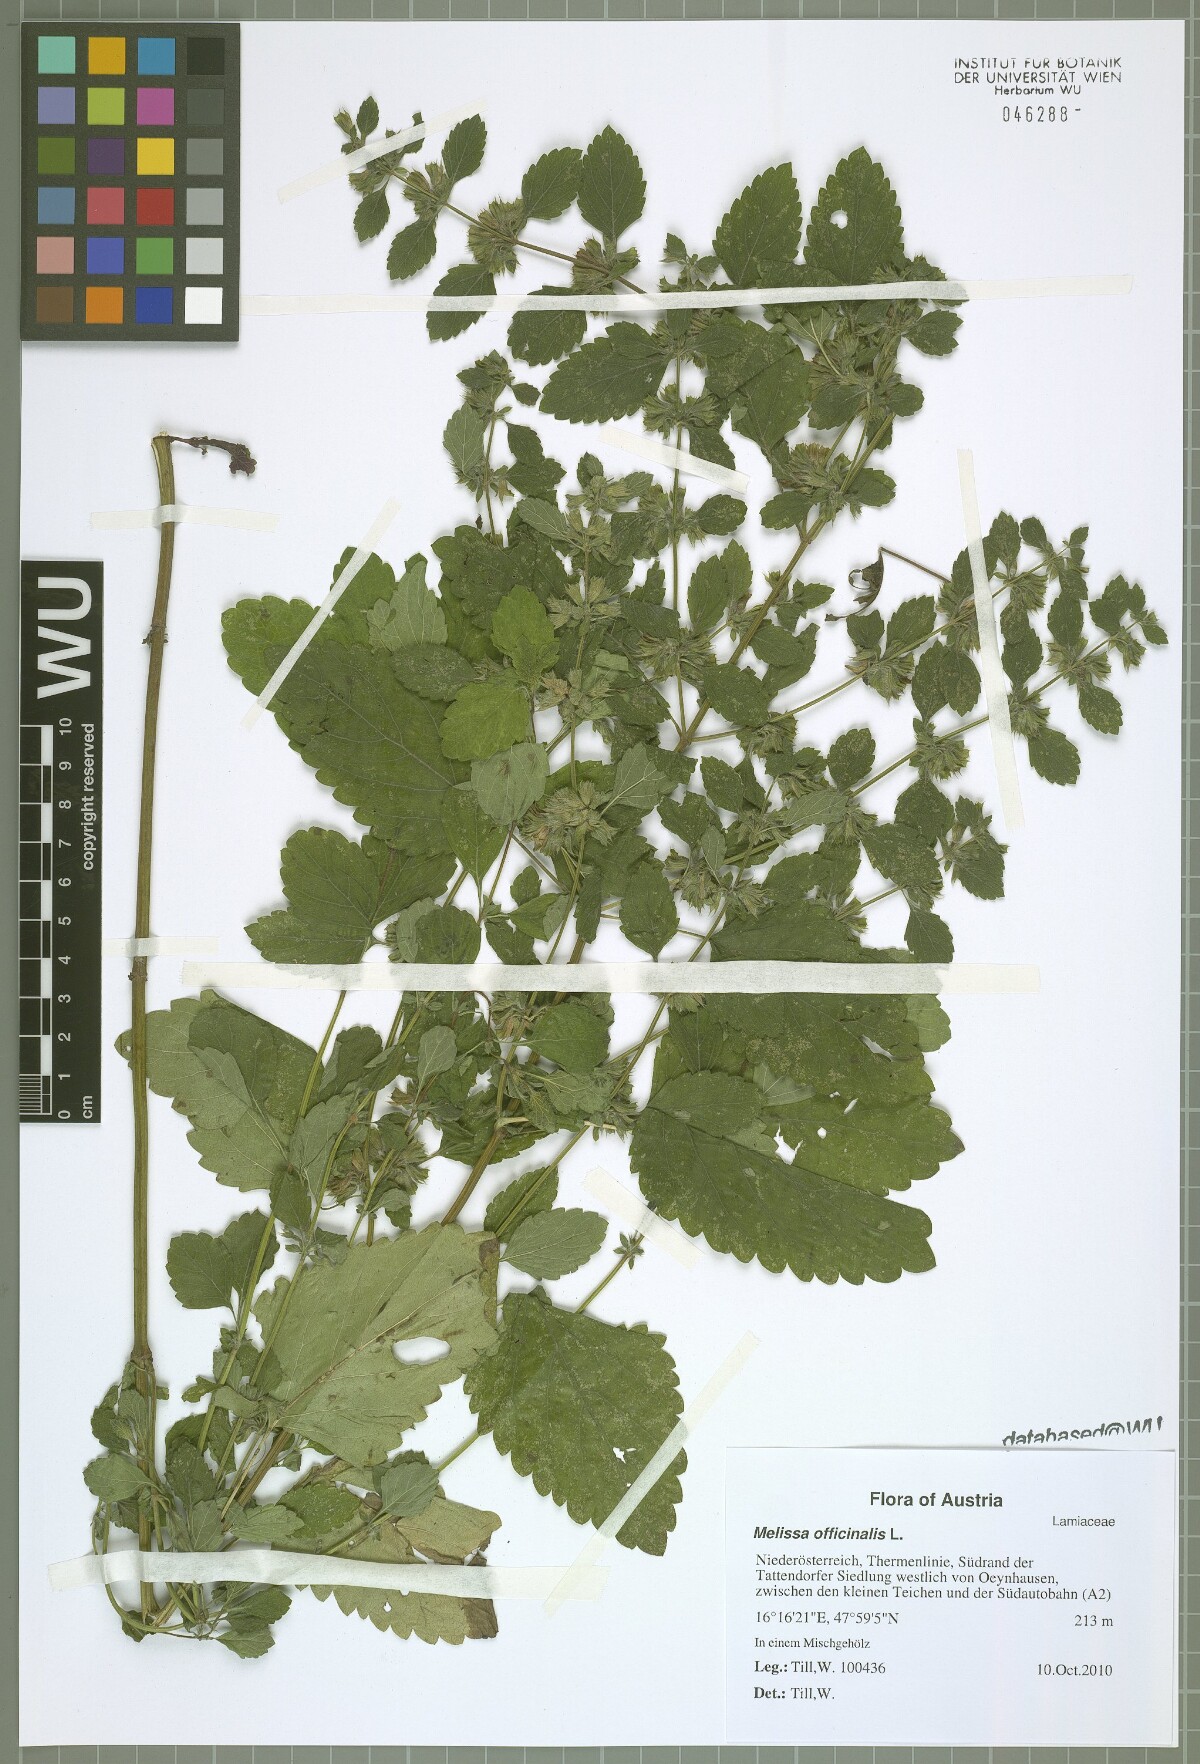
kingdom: Plantae
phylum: Tracheophyta
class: Magnoliopsida
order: Lamiales
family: Lamiaceae
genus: Melissa
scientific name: Melissa officinalis
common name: Balm
